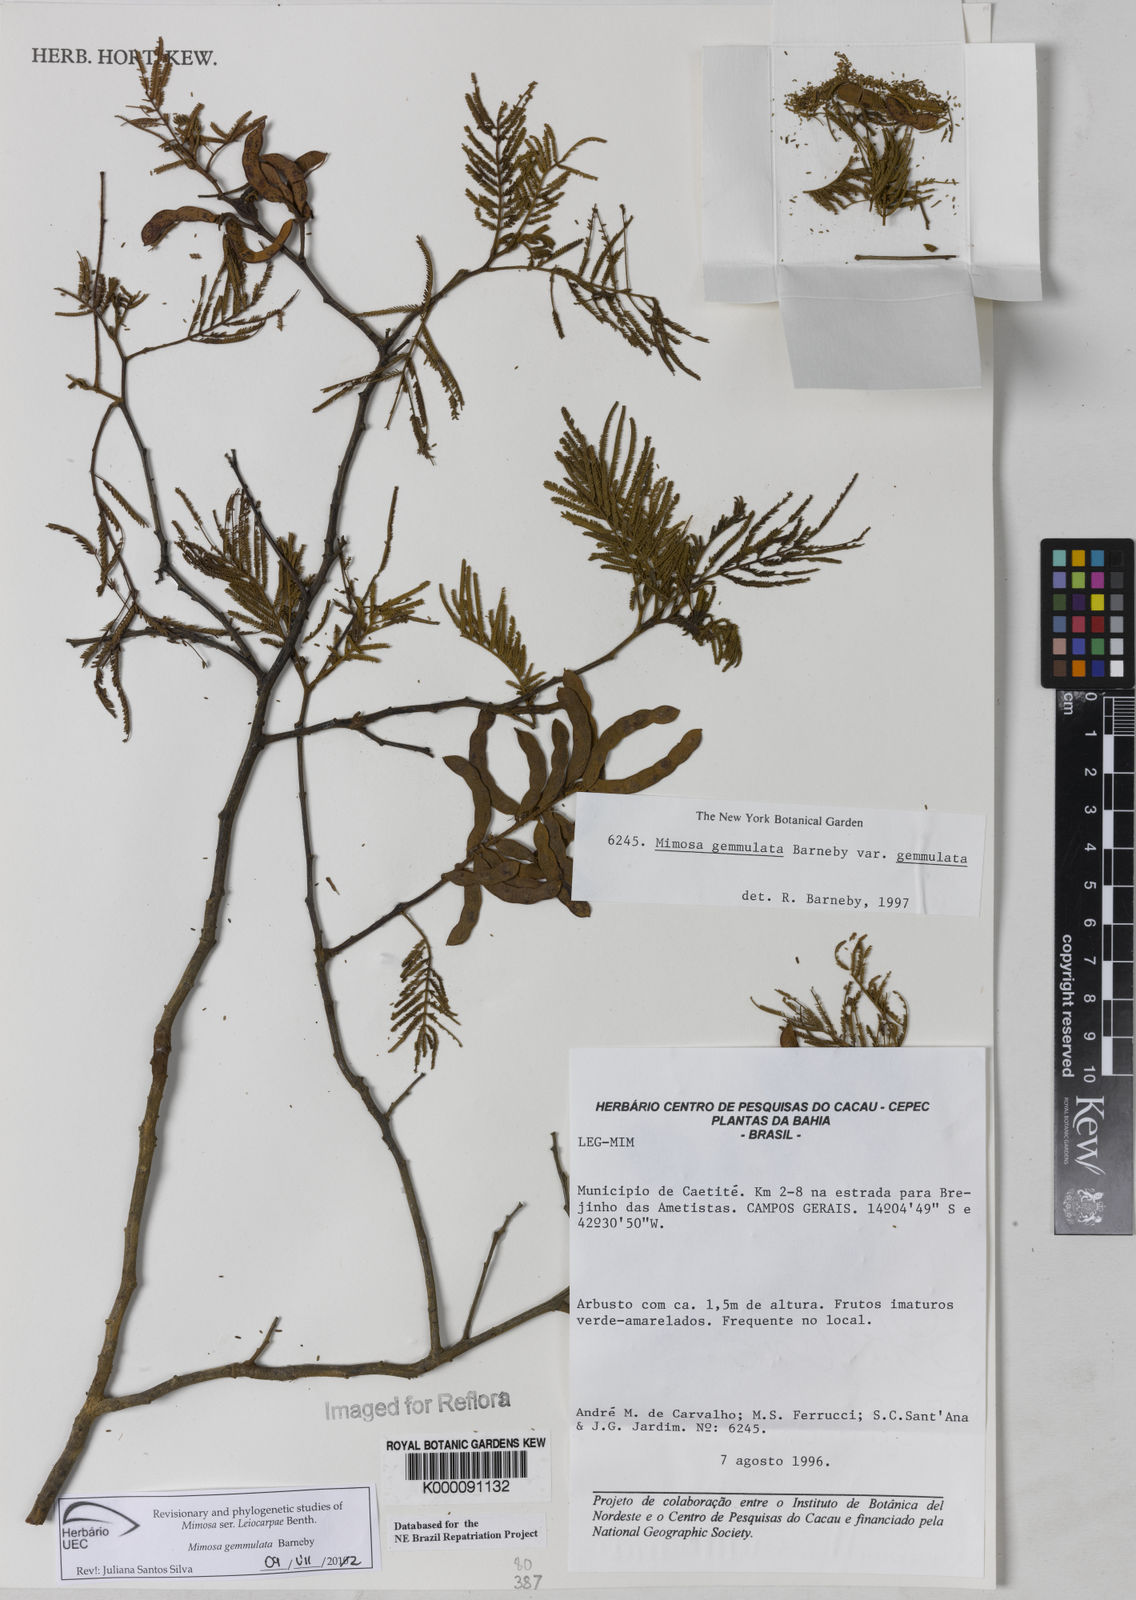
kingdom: Plantae
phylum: Tracheophyta
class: Magnoliopsida
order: Fabales
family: Fabaceae
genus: Mimosa
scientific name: Mimosa gemmulata
